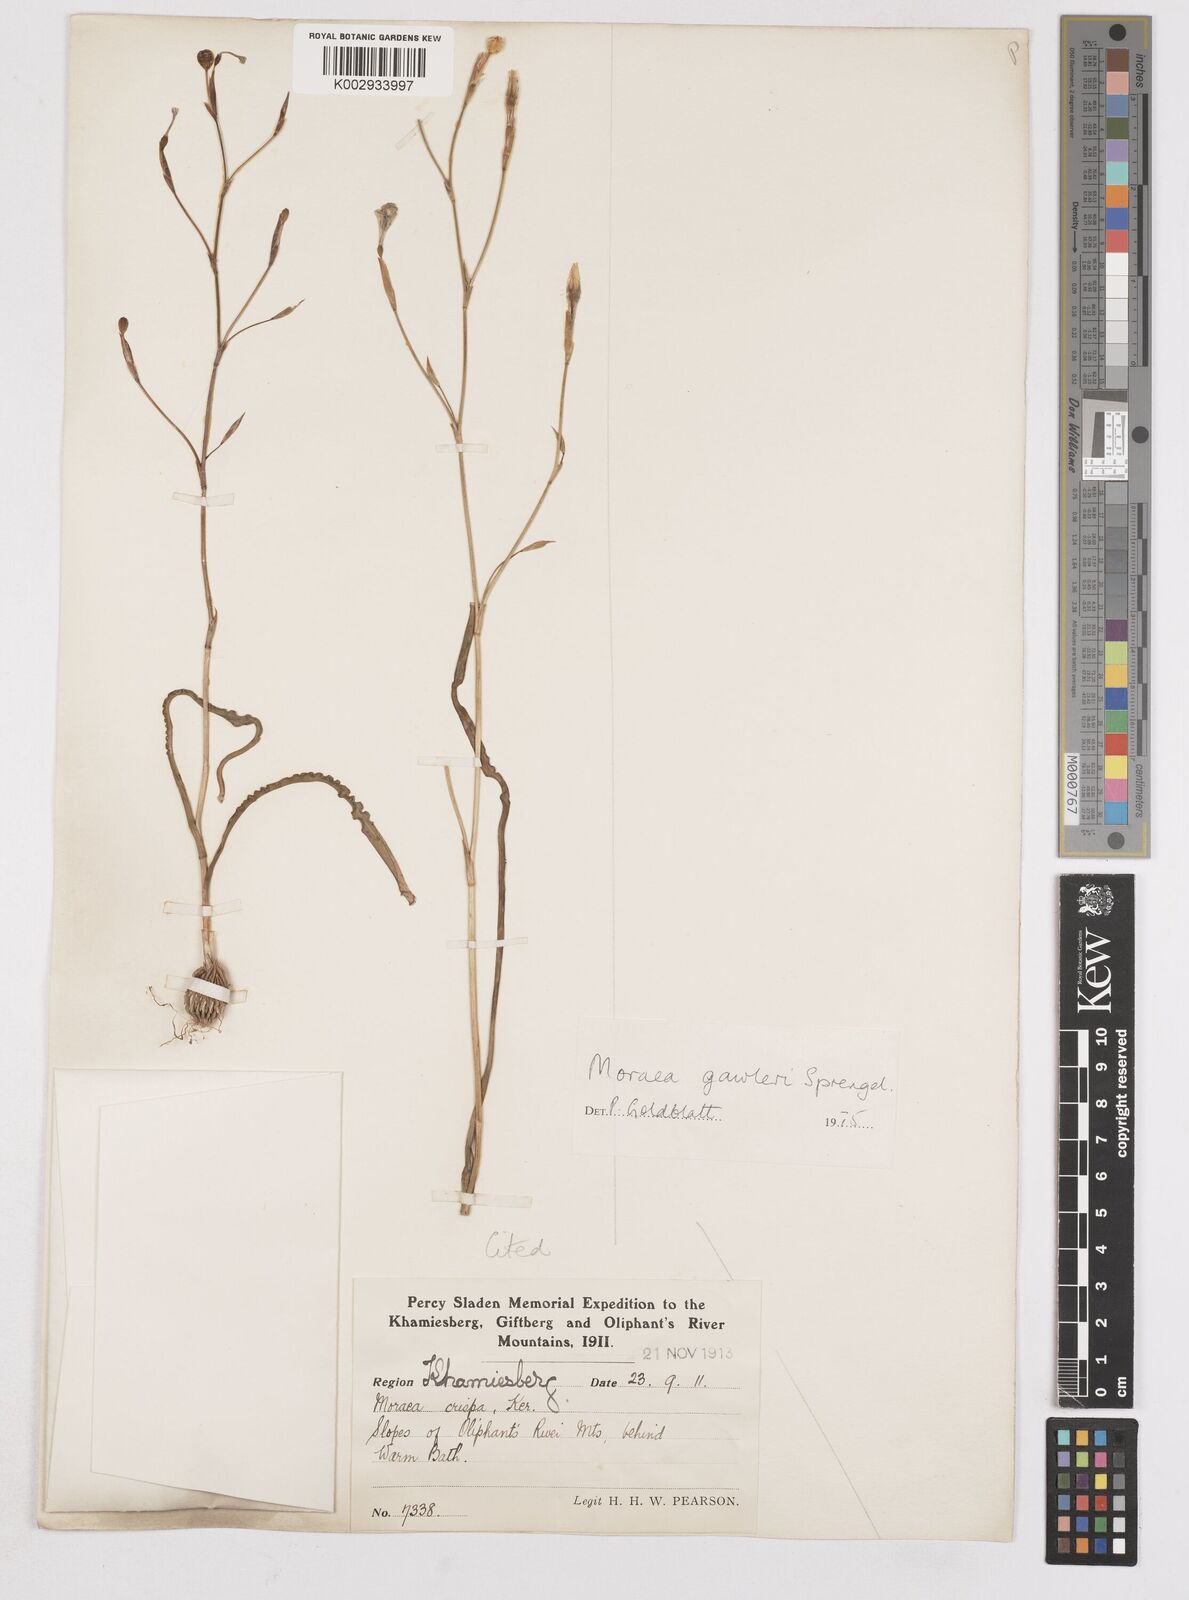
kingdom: Plantae
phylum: Tracheophyta
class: Liliopsida
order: Asparagales
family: Iridaceae
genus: Moraea
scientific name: Moraea gawleri
